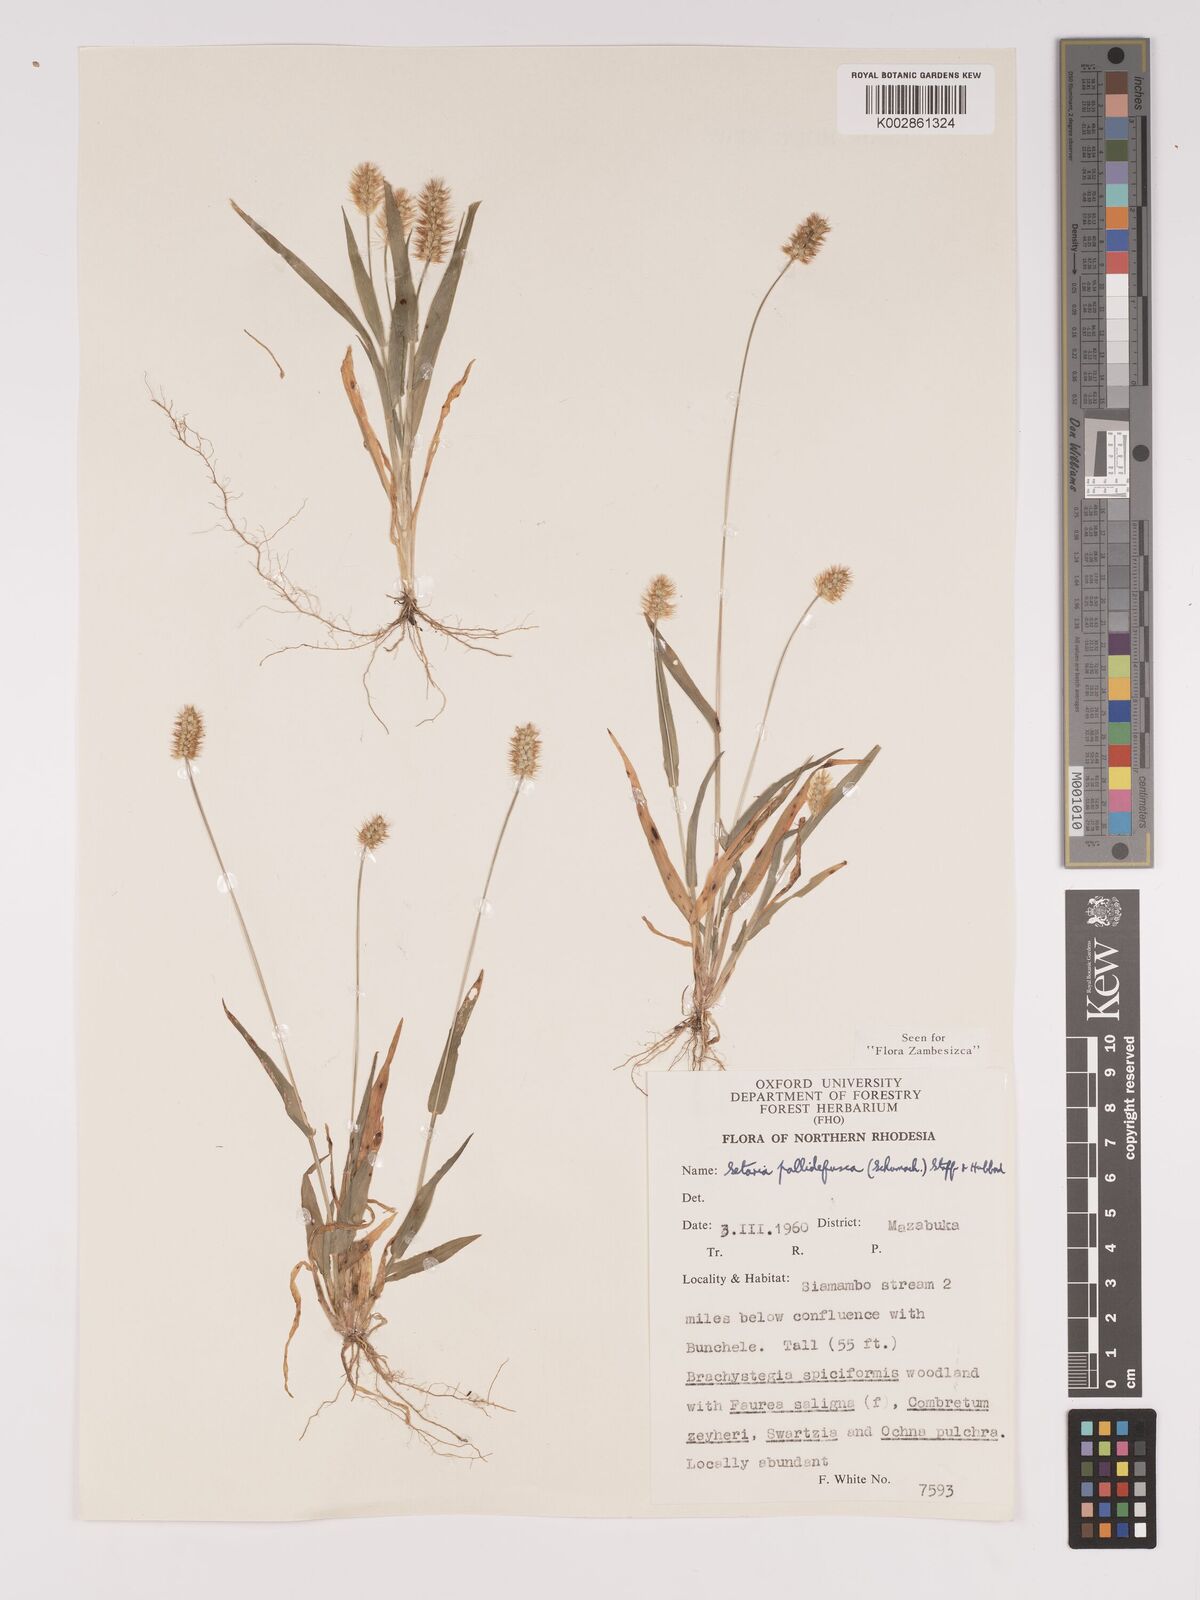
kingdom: Plantae
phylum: Tracheophyta
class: Liliopsida
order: Poales
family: Poaceae
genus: Setaria
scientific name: Setaria pumila
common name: Yellow bristle-grass
